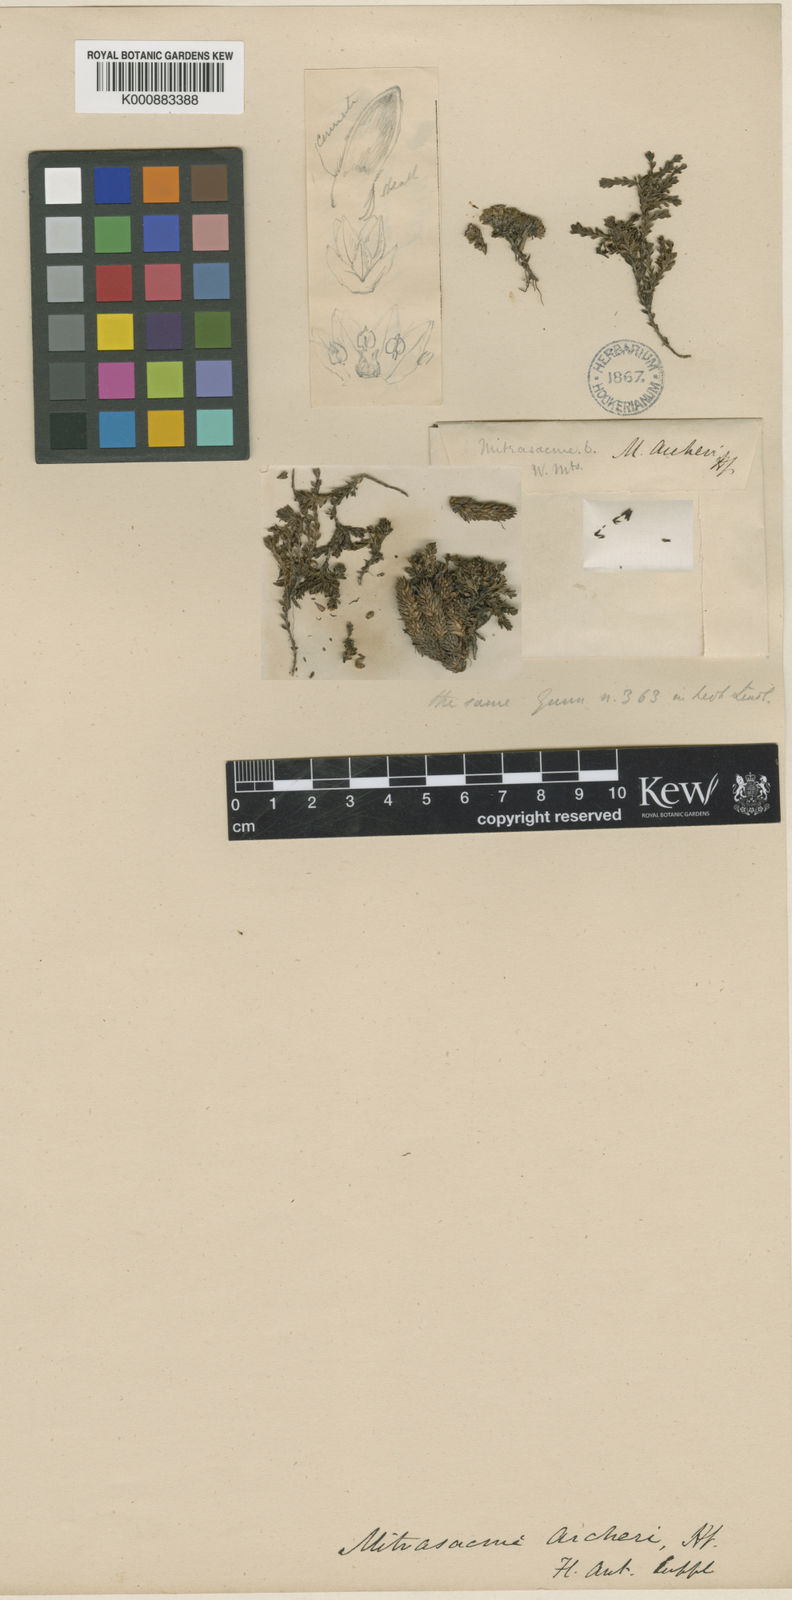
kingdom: Plantae
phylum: Tracheophyta
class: Magnoliopsida
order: Gentianales
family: Loganiaceae
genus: Schizacme
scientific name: Schizacme archeri
